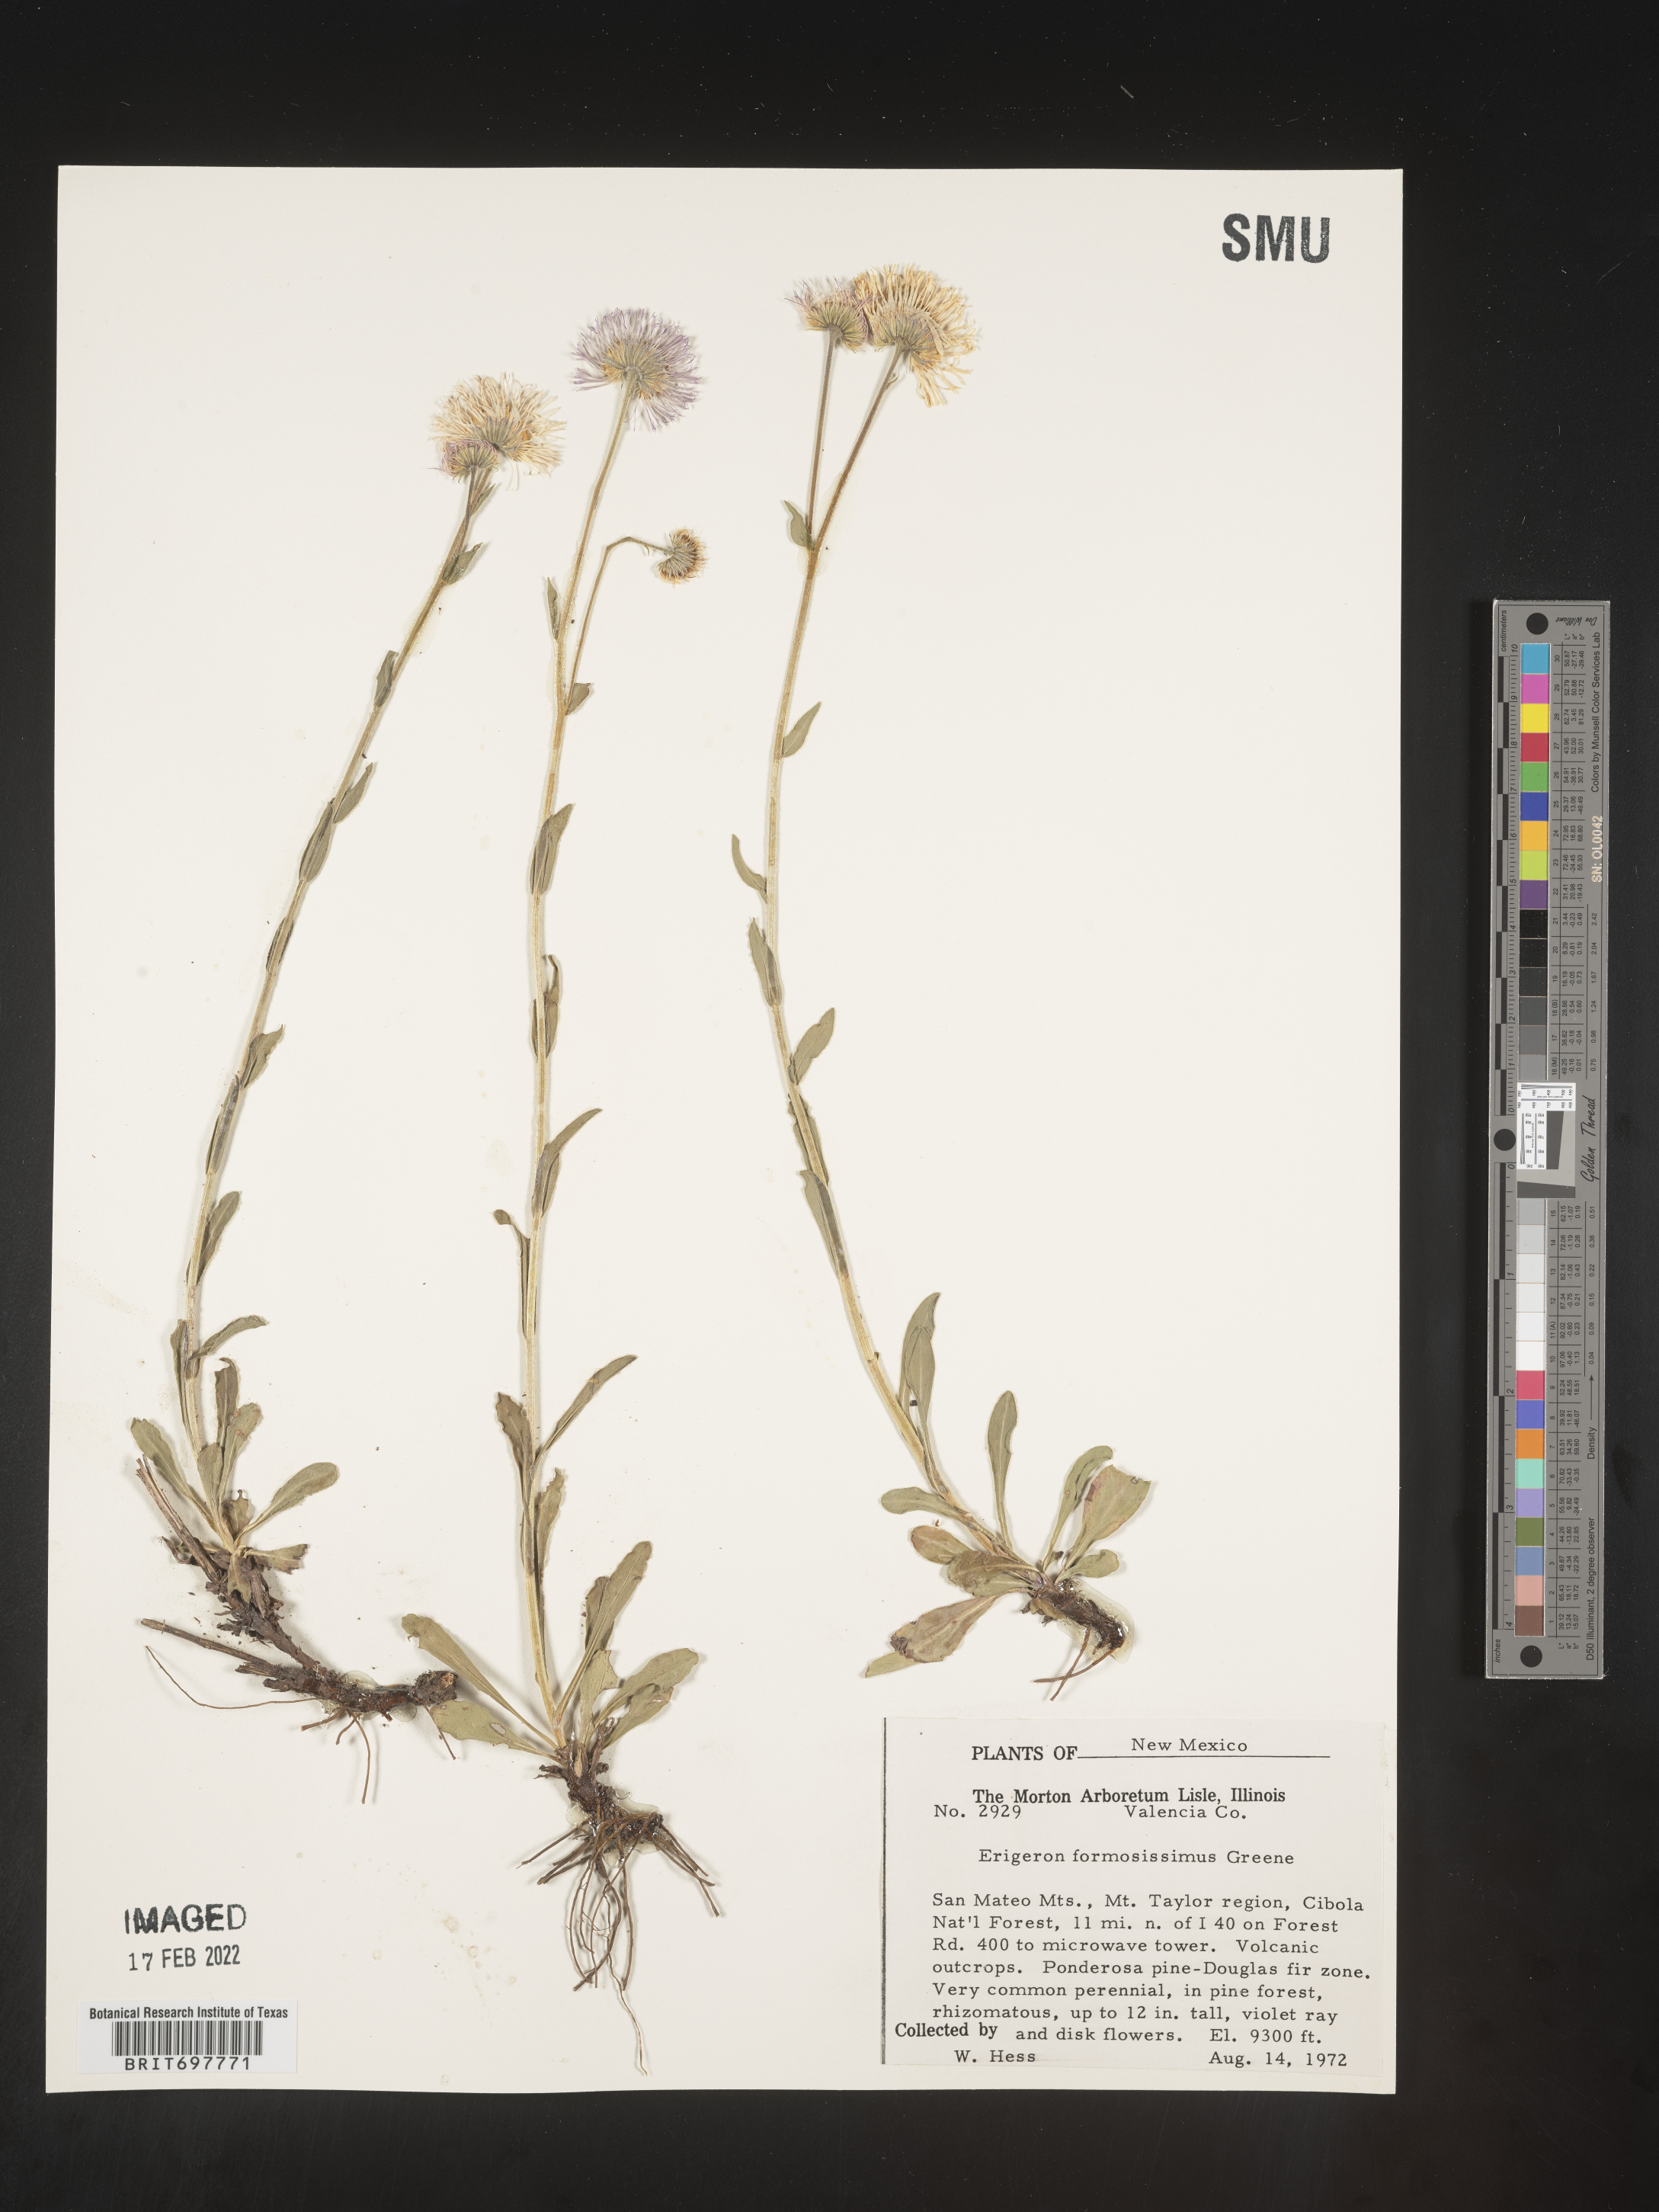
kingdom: Plantae
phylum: Tracheophyta
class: Magnoliopsida
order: Asterales
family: Asteraceae
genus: Erigeron
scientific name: Erigeron formosissimus
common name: Beautiful fleabane
